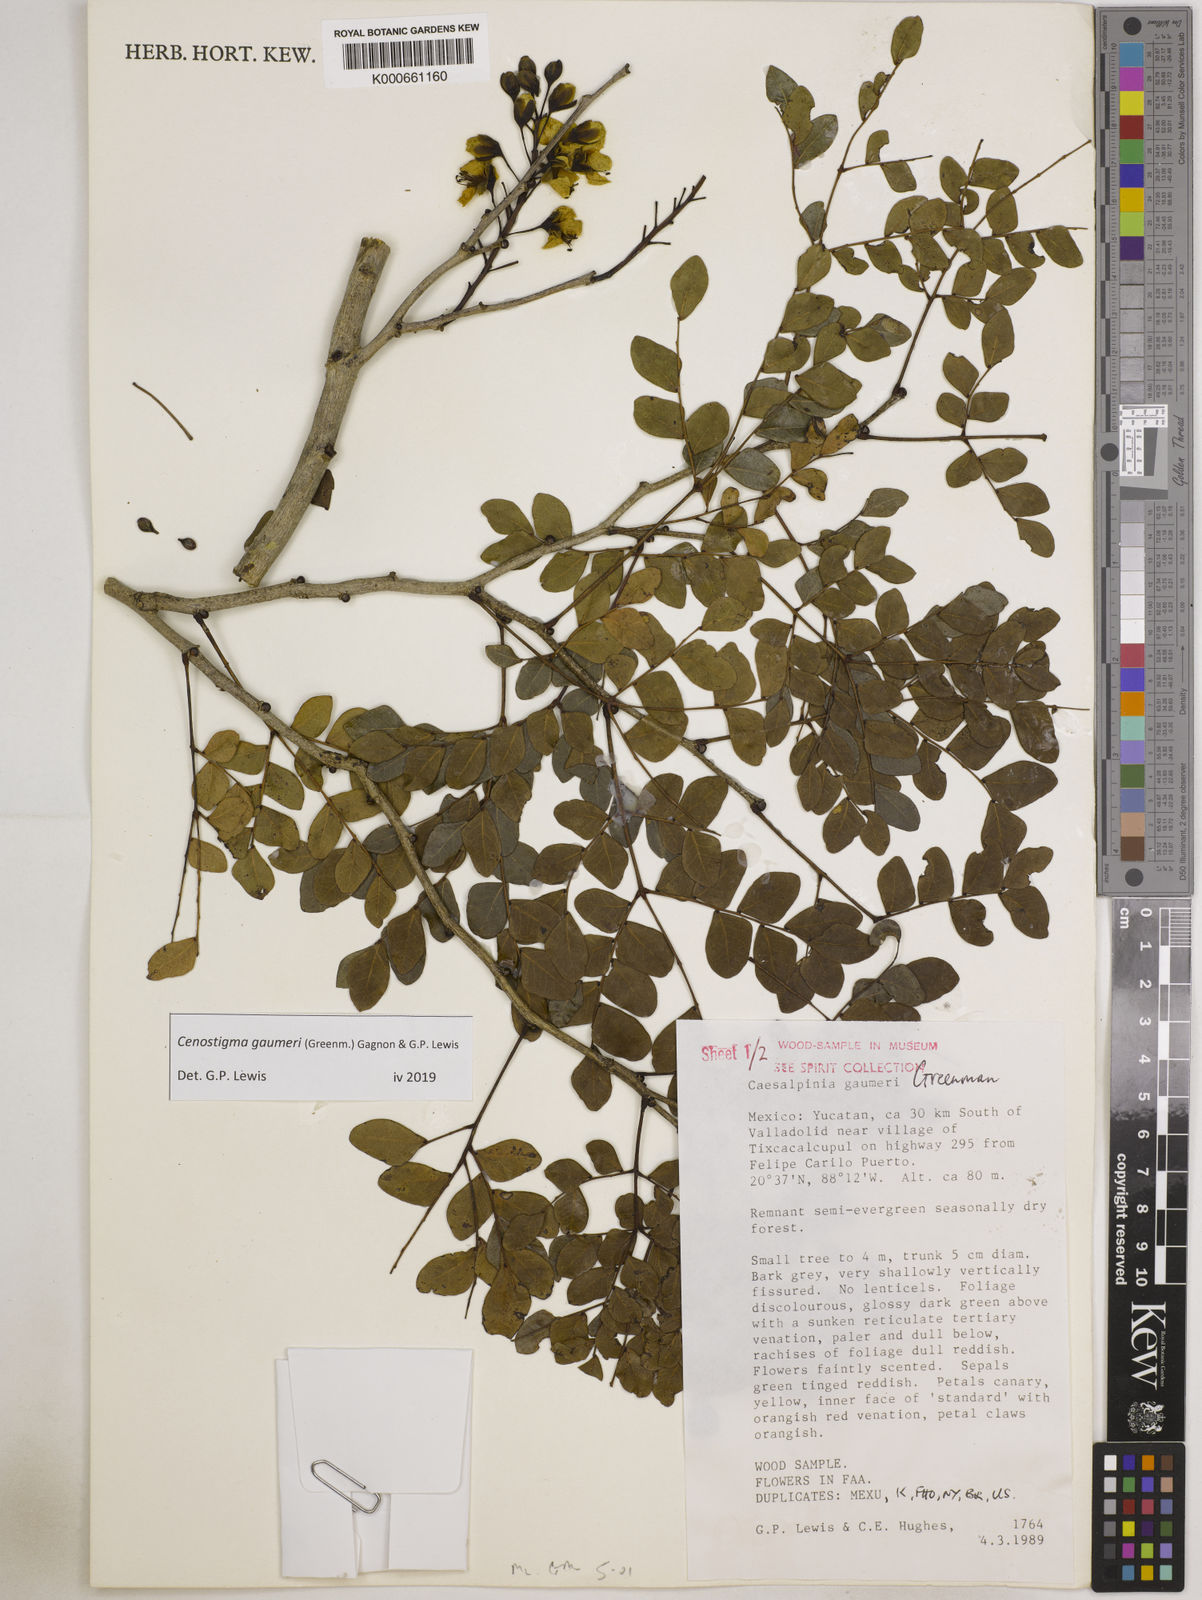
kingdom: Plantae
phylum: Tracheophyta
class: Magnoliopsida
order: Fabales
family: Fabaceae
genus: Cenostigma
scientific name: Cenostigma gaumeri
